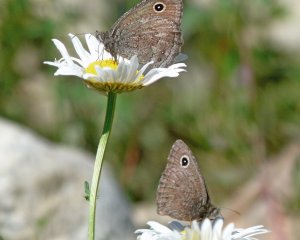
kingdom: Animalia
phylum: Arthropoda
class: Insecta
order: Lepidoptera
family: Nymphalidae
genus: Cercyonis
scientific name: Cercyonis oetus
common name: Small Wood-Nymph
